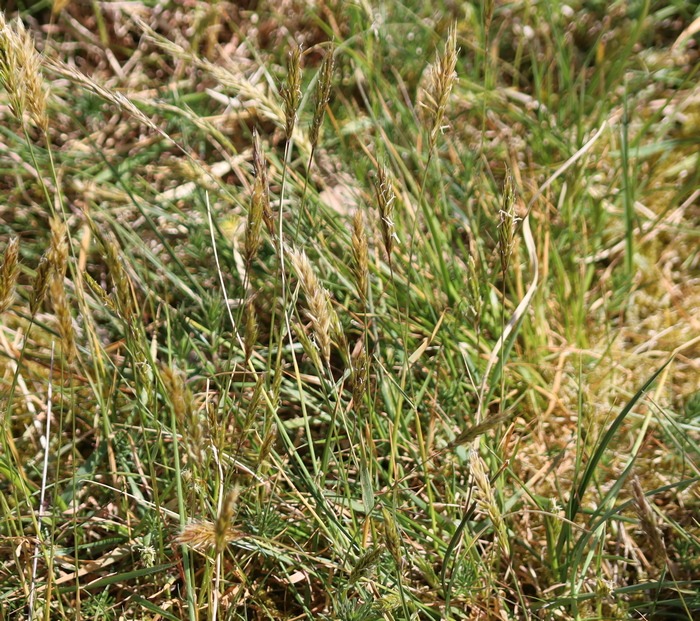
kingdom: Plantae
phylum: Tracheophyta
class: Liliopsida
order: Poales
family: Poaceae
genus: Anthoxanthum
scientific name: Anthoxanthum odoratum
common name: Vellugtende gulaks
